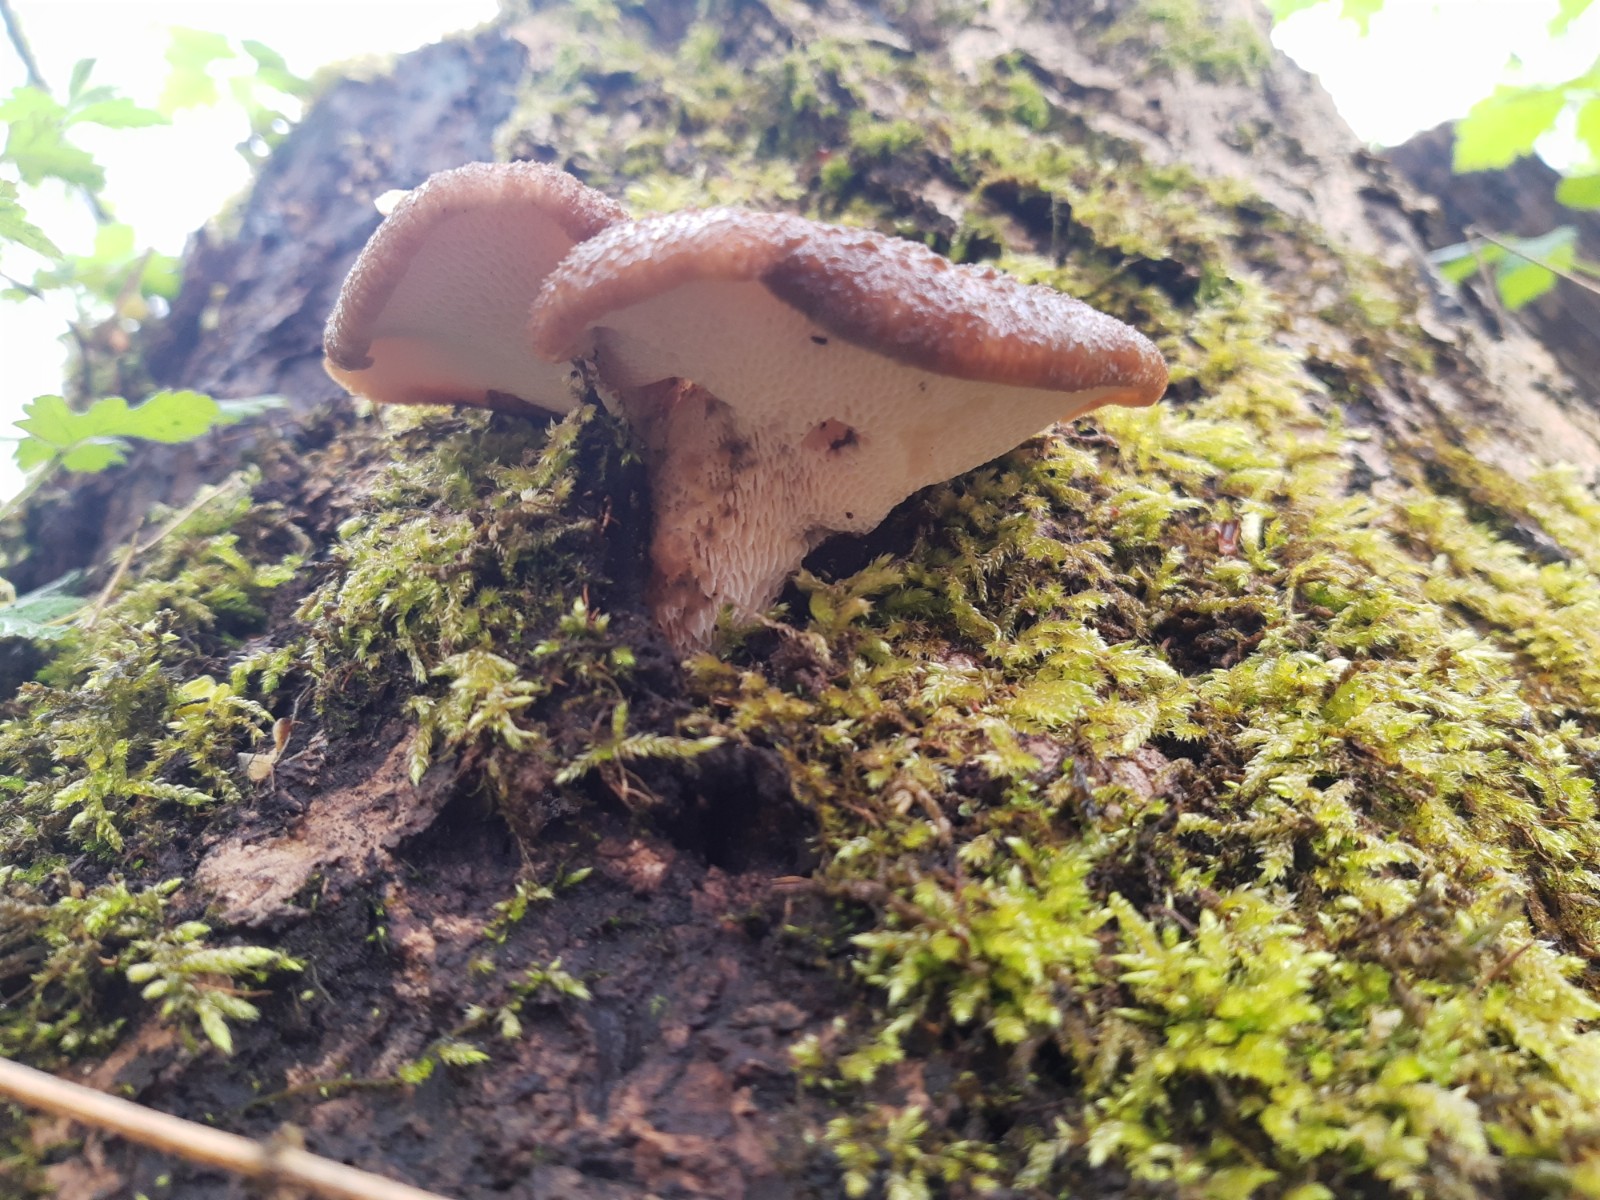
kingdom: Fungi
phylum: Basidiomycota
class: Agaricomycetes
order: Polyporales
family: Polyporaceae
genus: Cerioporus
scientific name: Cerioporus squamosus
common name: skællet stilkporesvamp
